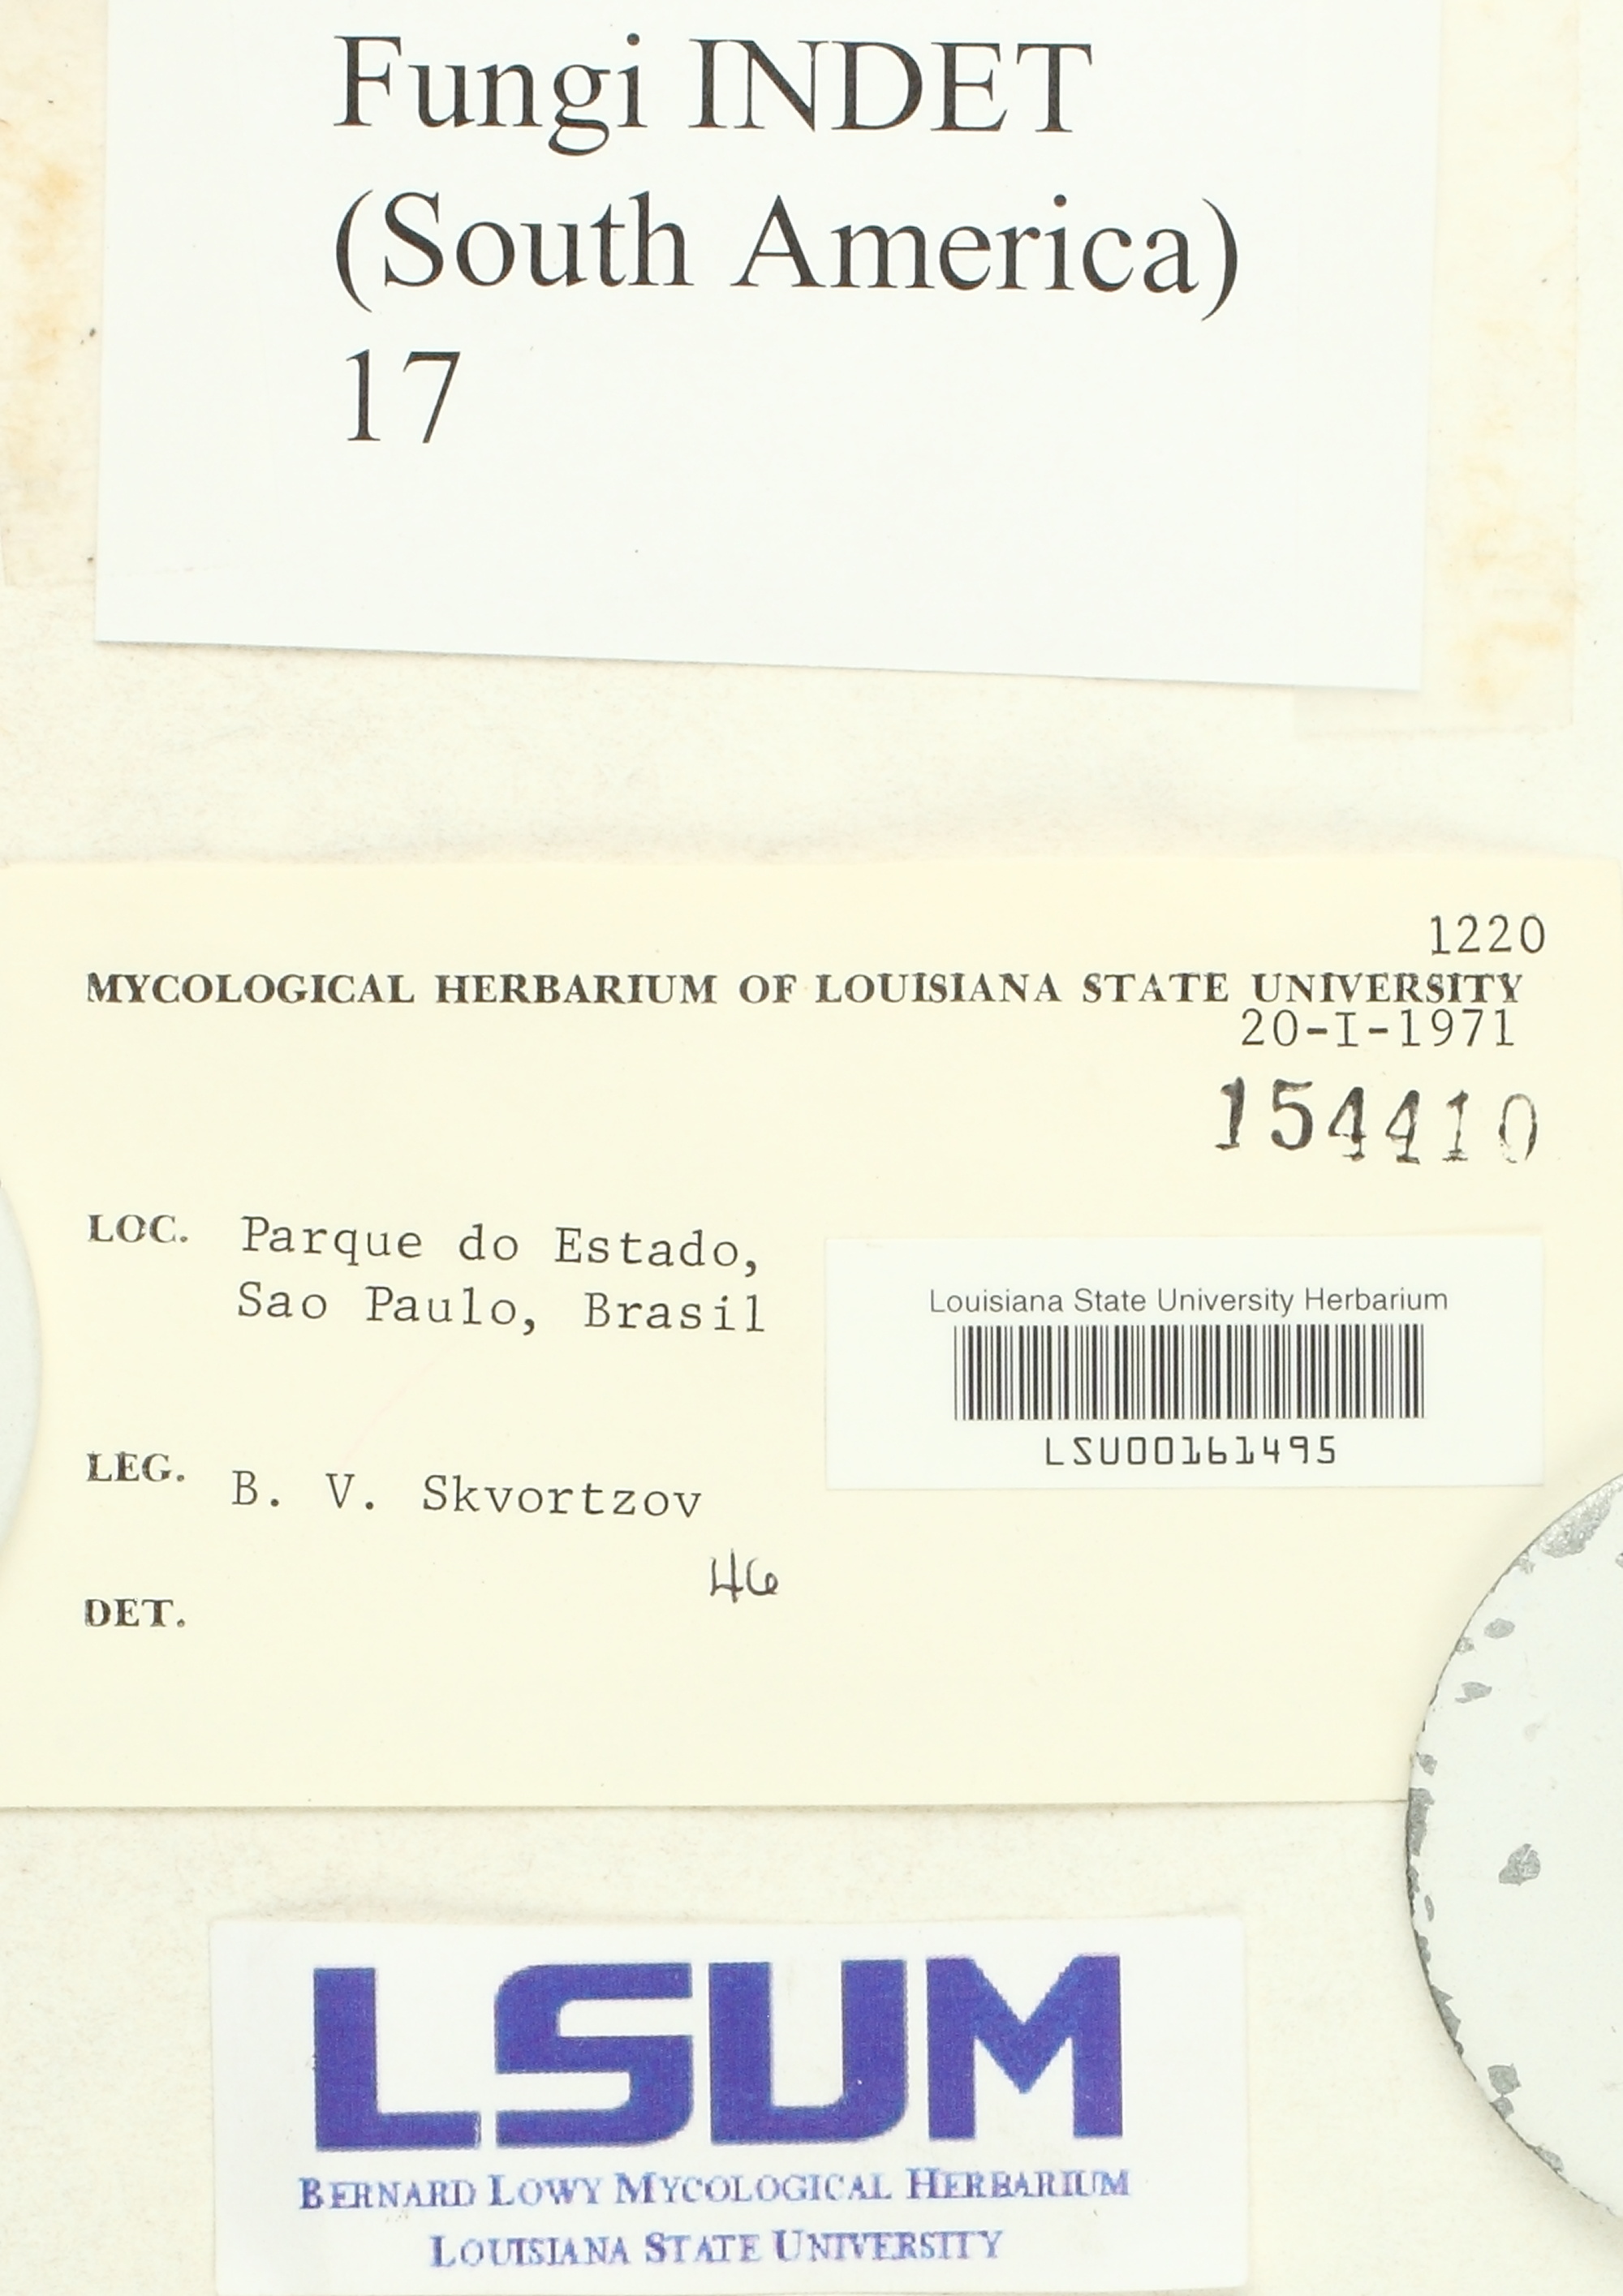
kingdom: Fungi
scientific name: Fungi
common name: Fungi
